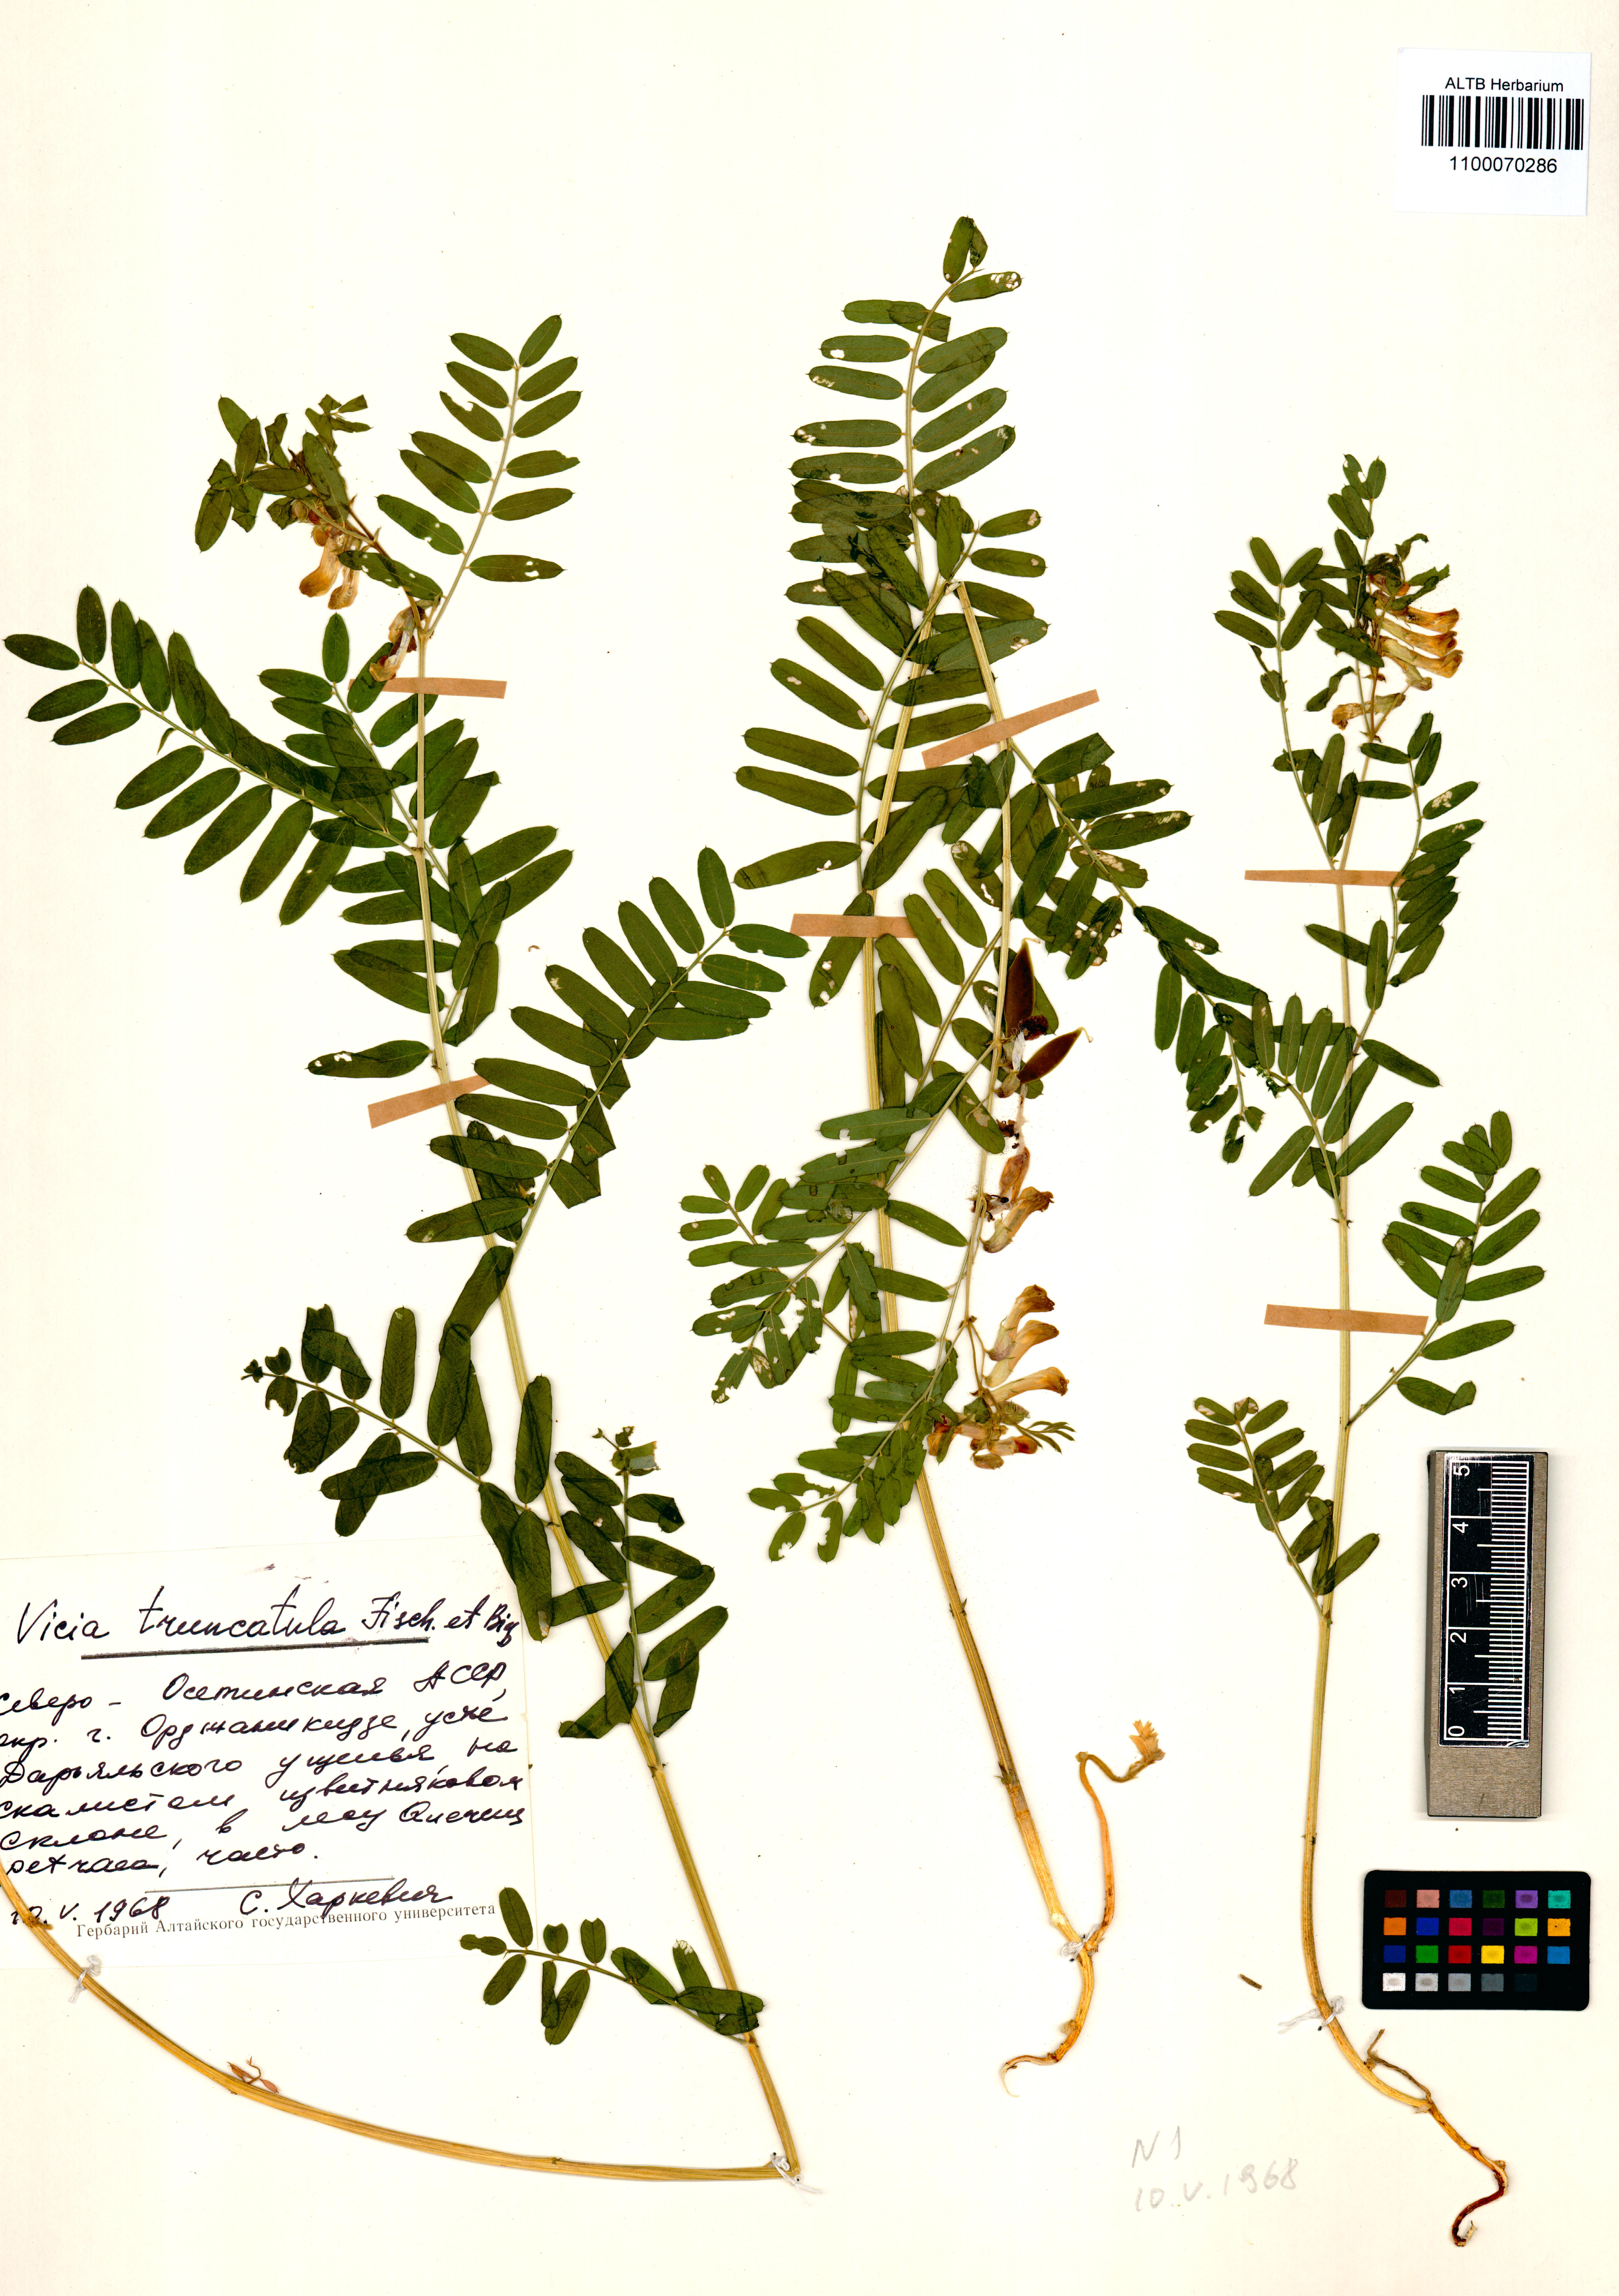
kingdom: Plantae
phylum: Tracheophyta
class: Magnoliopsida
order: Fabales
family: Fabaceae
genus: Vicia
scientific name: Vicia abbreviata
